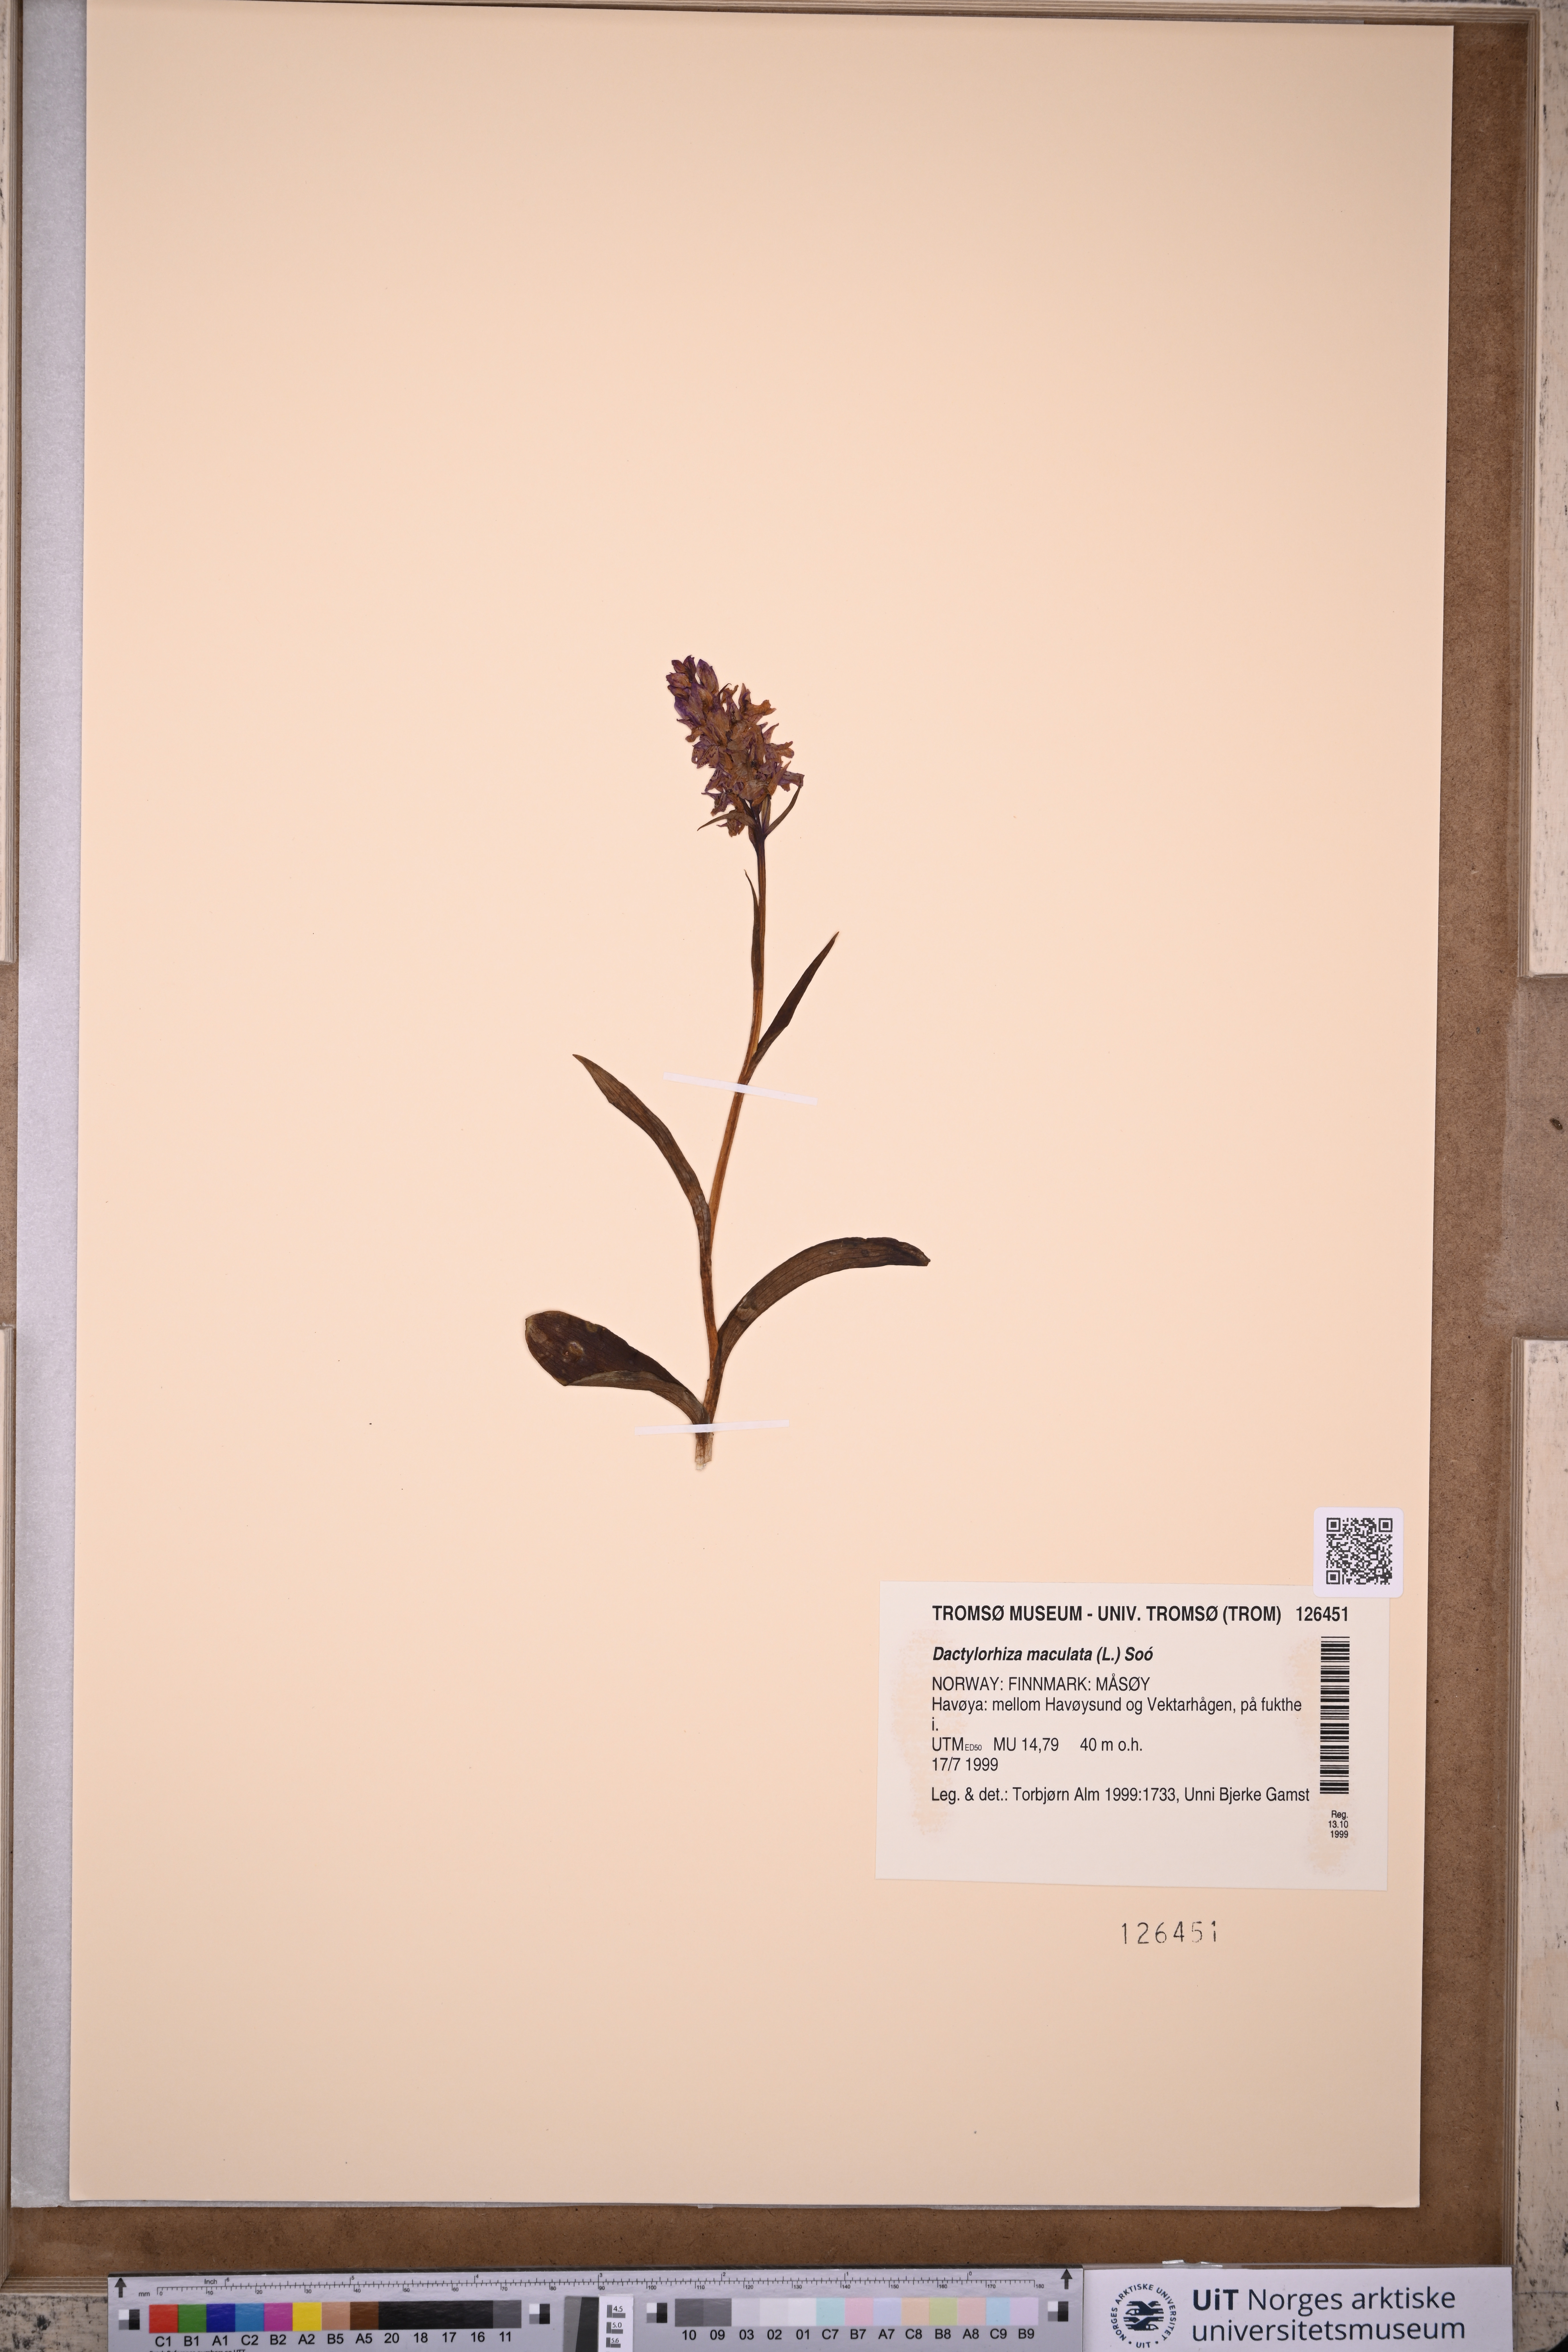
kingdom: Plantae
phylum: Tracheophyta
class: Liliopsida
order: Asparagales
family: Orchidaceae
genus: Dactylorhiza
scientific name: Dactylorhiza maculata
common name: Heath spotted-orchid
